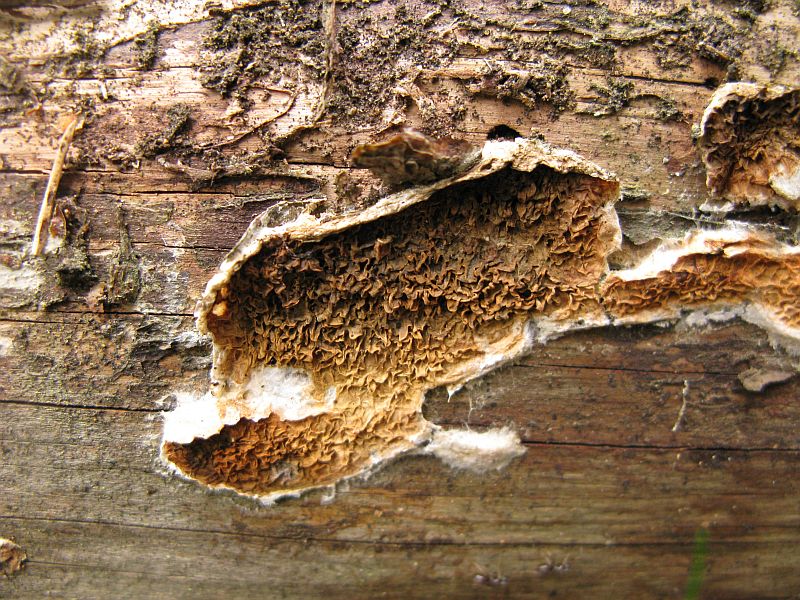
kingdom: Fungi
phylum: Basidiomycota
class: Agaricomycetes
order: Boletales
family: Serpulaceae
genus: Serpula
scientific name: Serpula himantioides
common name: tyndkødet hussvamp
